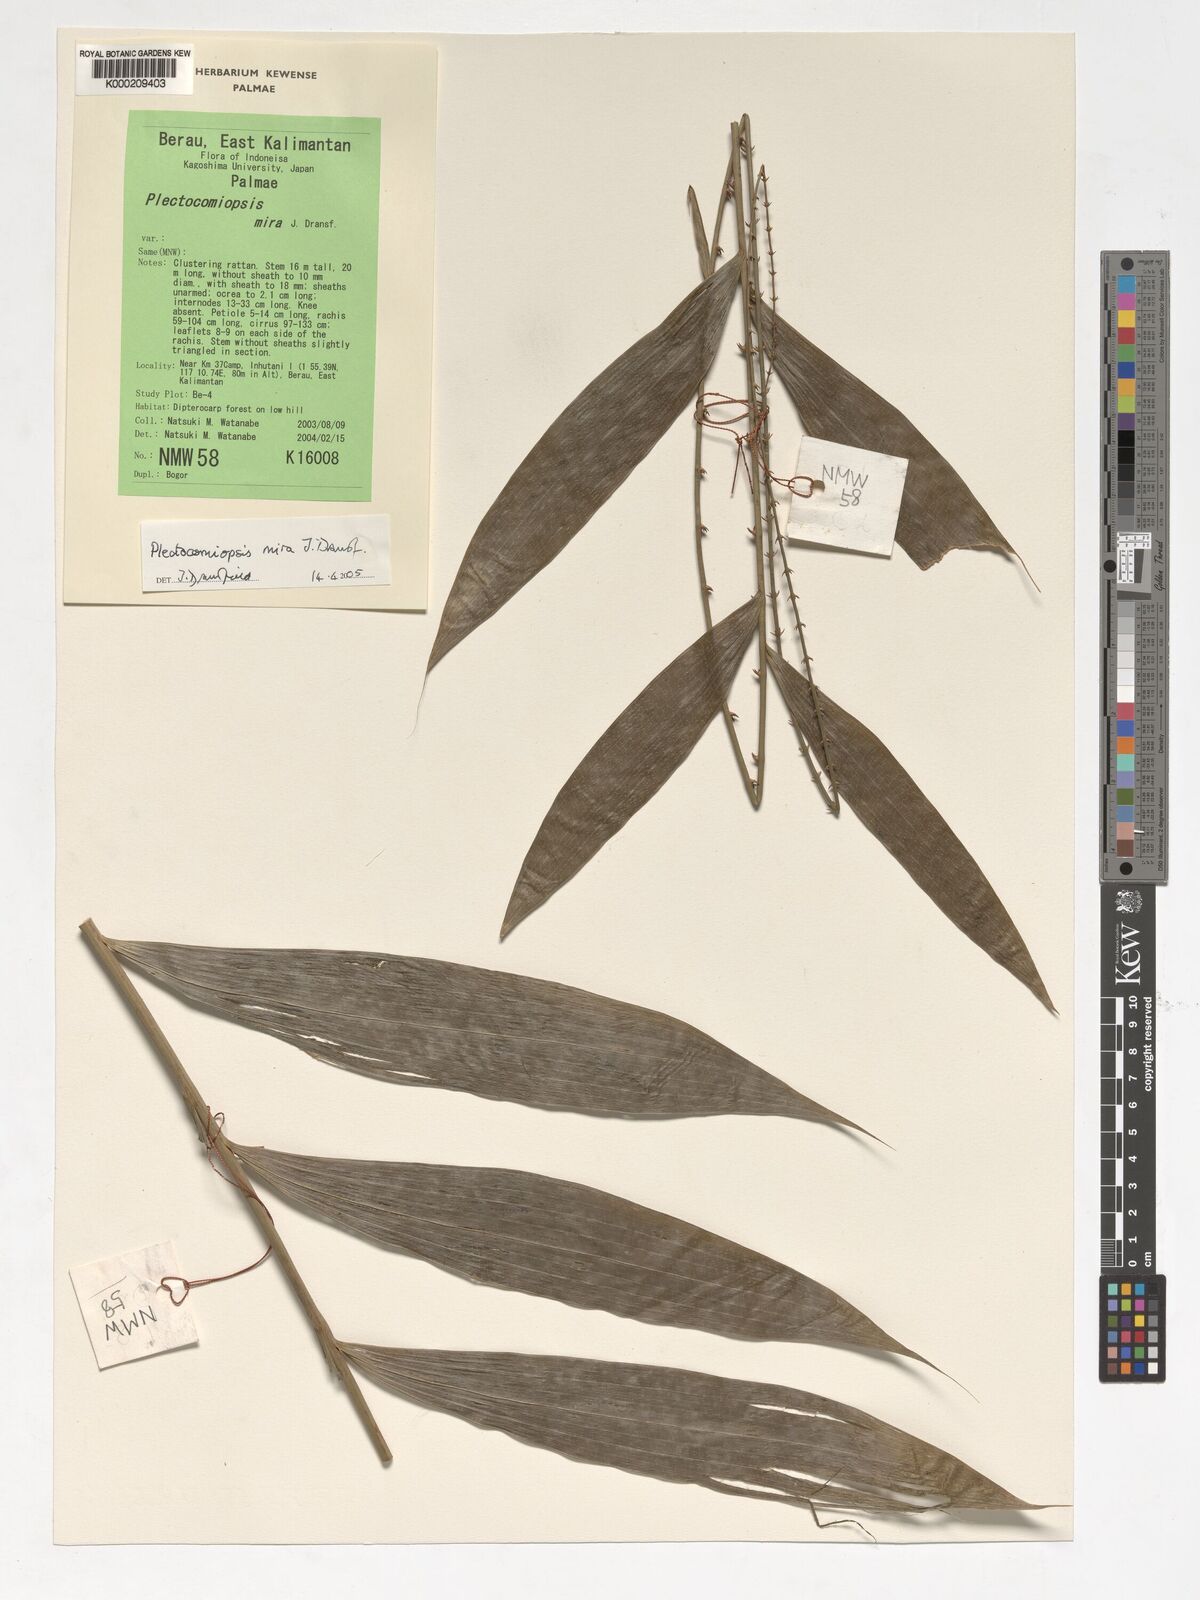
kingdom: Plantae
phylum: Tracheophyta
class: Liliopsida
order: Arecales
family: Arecaceae
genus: Plectocomiopsis
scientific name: Plectocomiopsis mira
